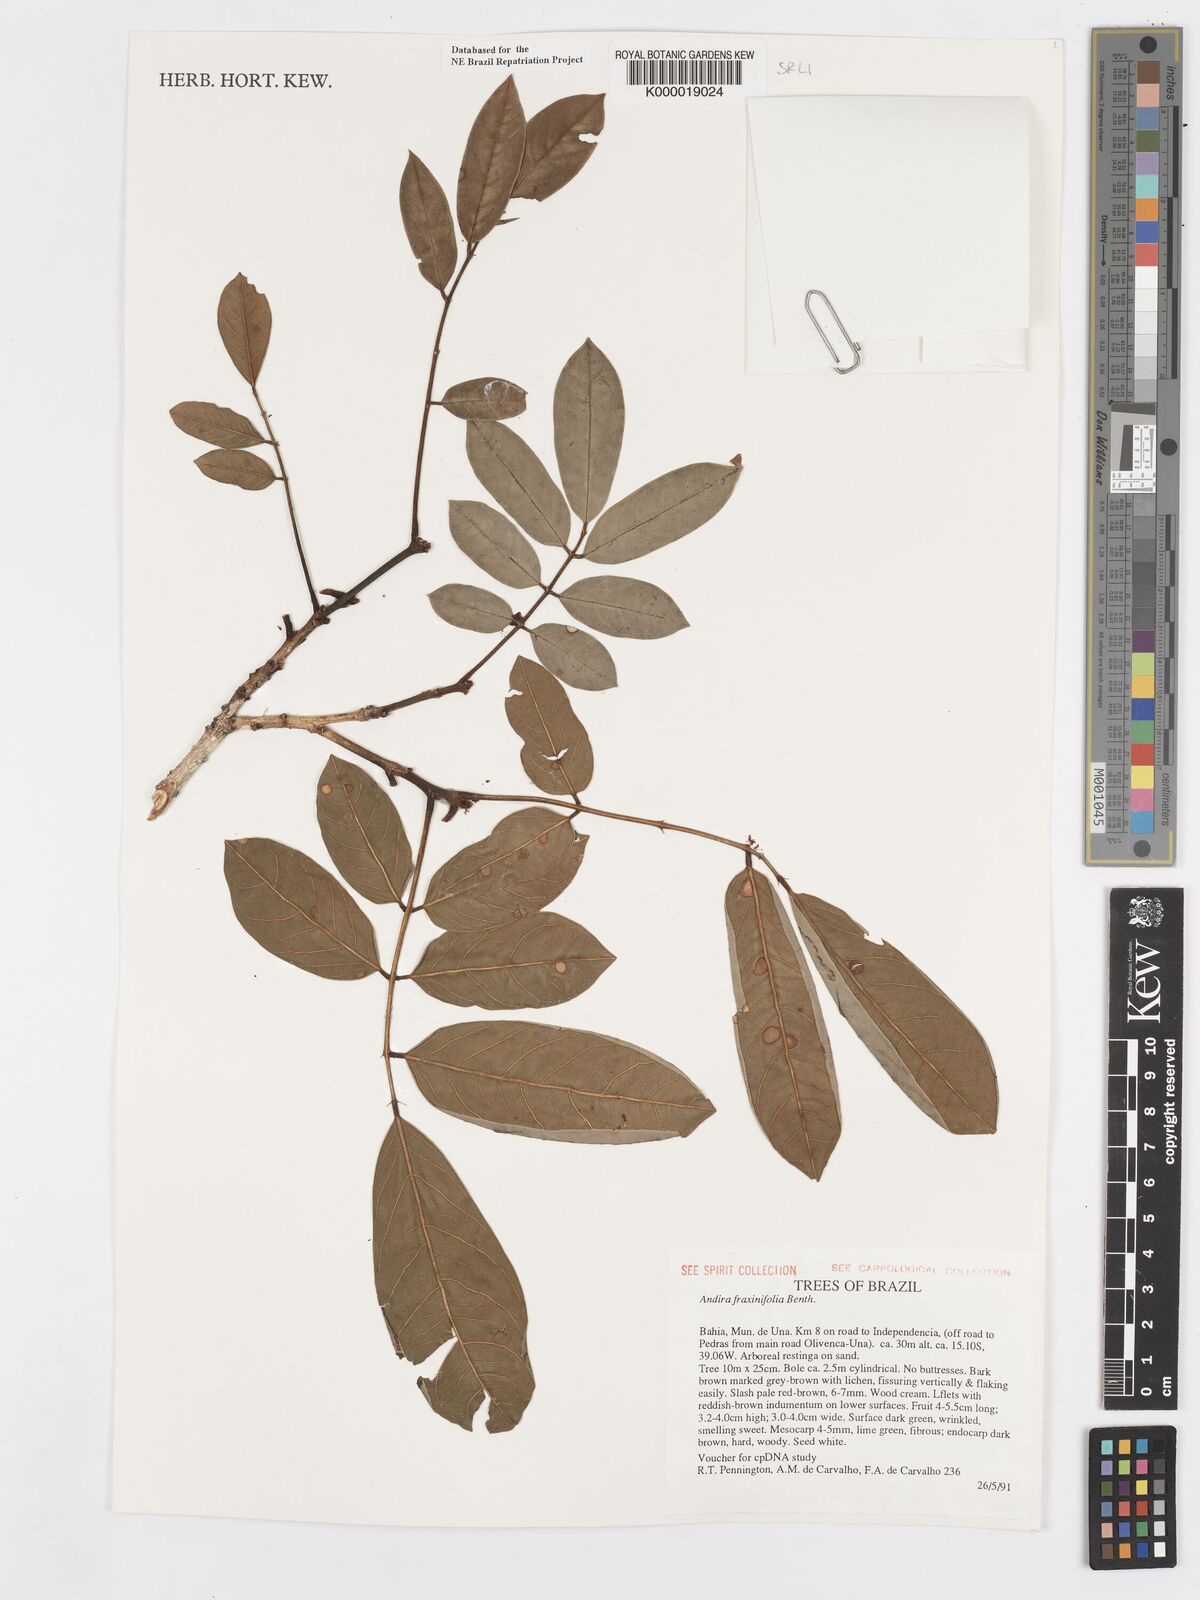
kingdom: Plantae
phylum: Tracheophyta
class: Magnoliopsida
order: Fabales
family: Fabaceae
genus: Andira
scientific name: Andira fraxinifolia
